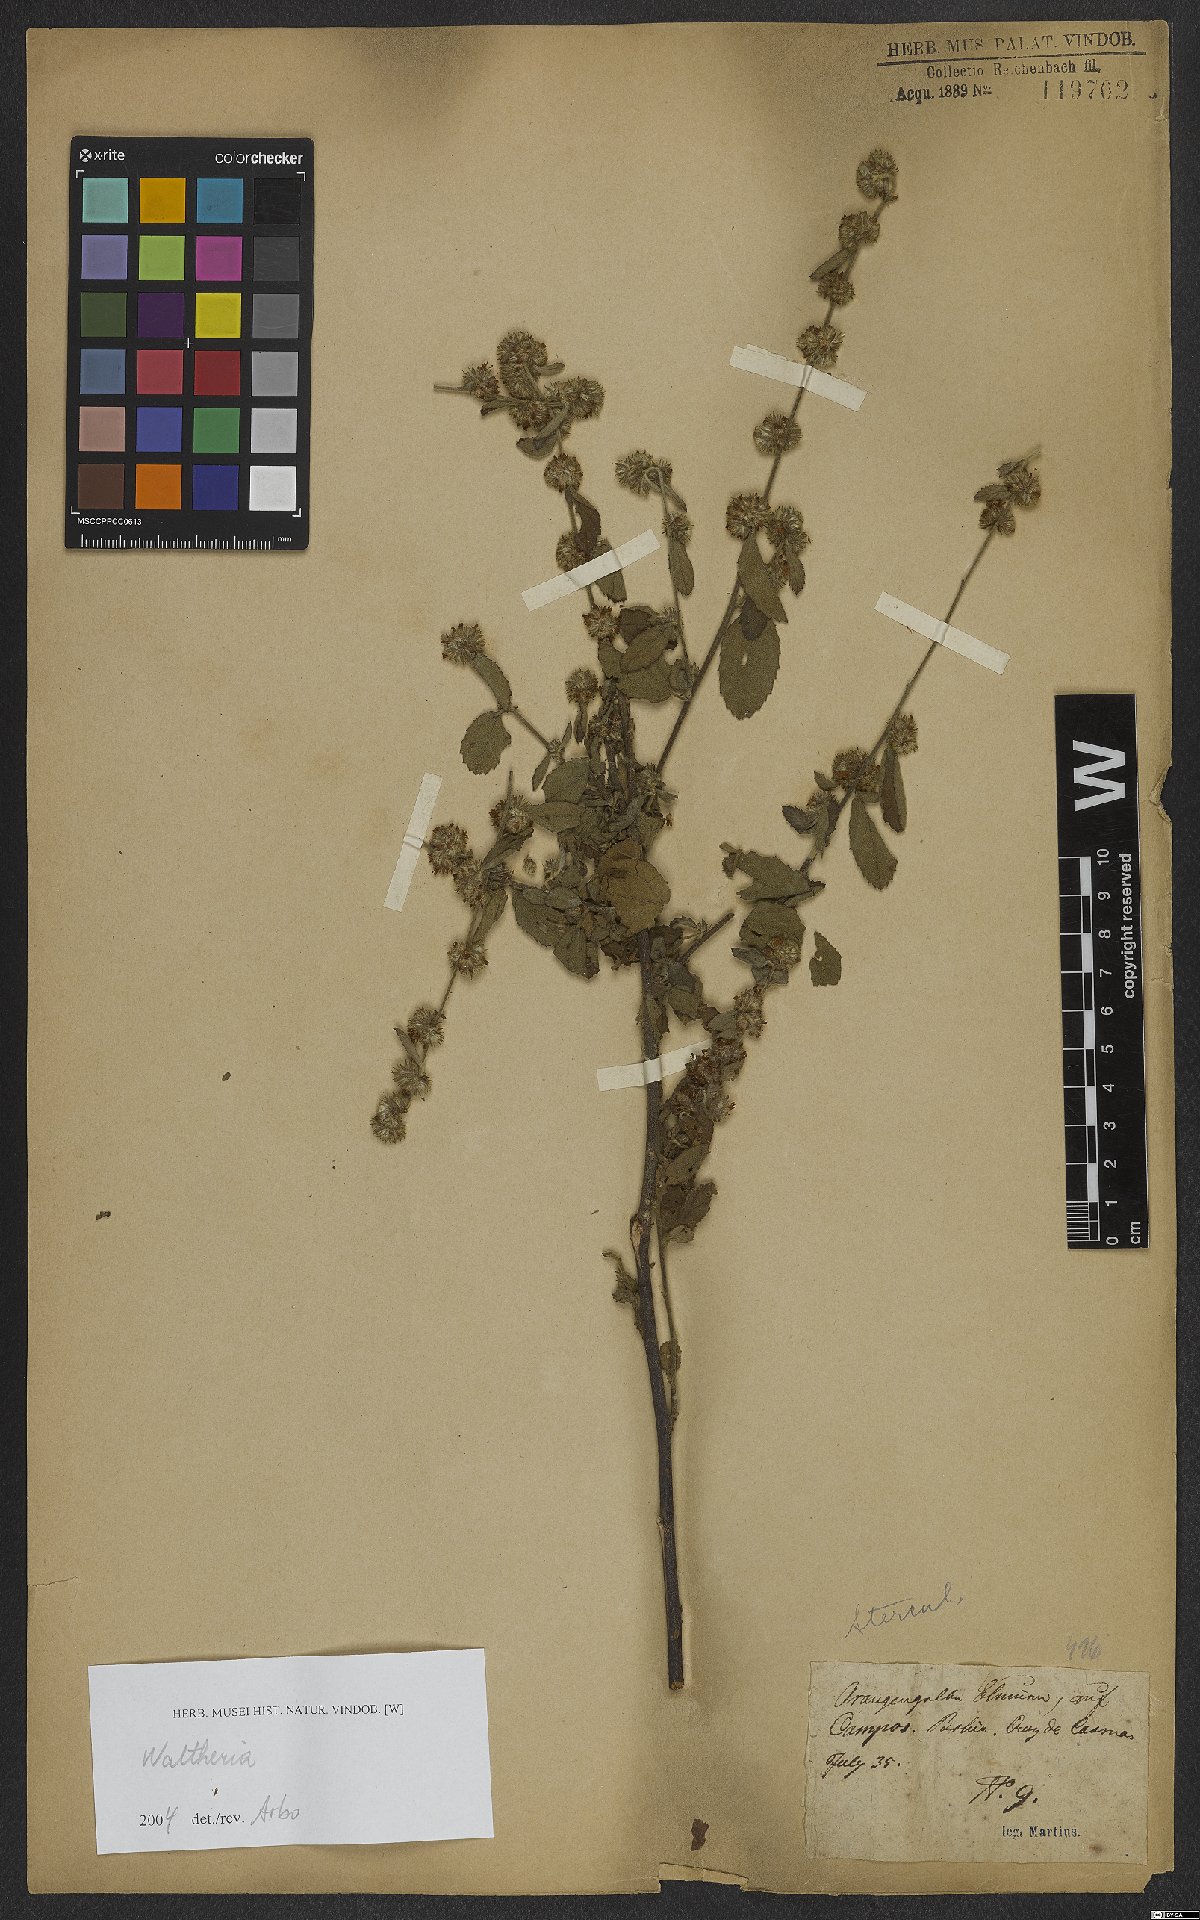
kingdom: Plantae
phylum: Tracheophyta
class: Magnoliopsida
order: Malvales
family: Malvaceae
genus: Waltheria
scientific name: Waltheria
